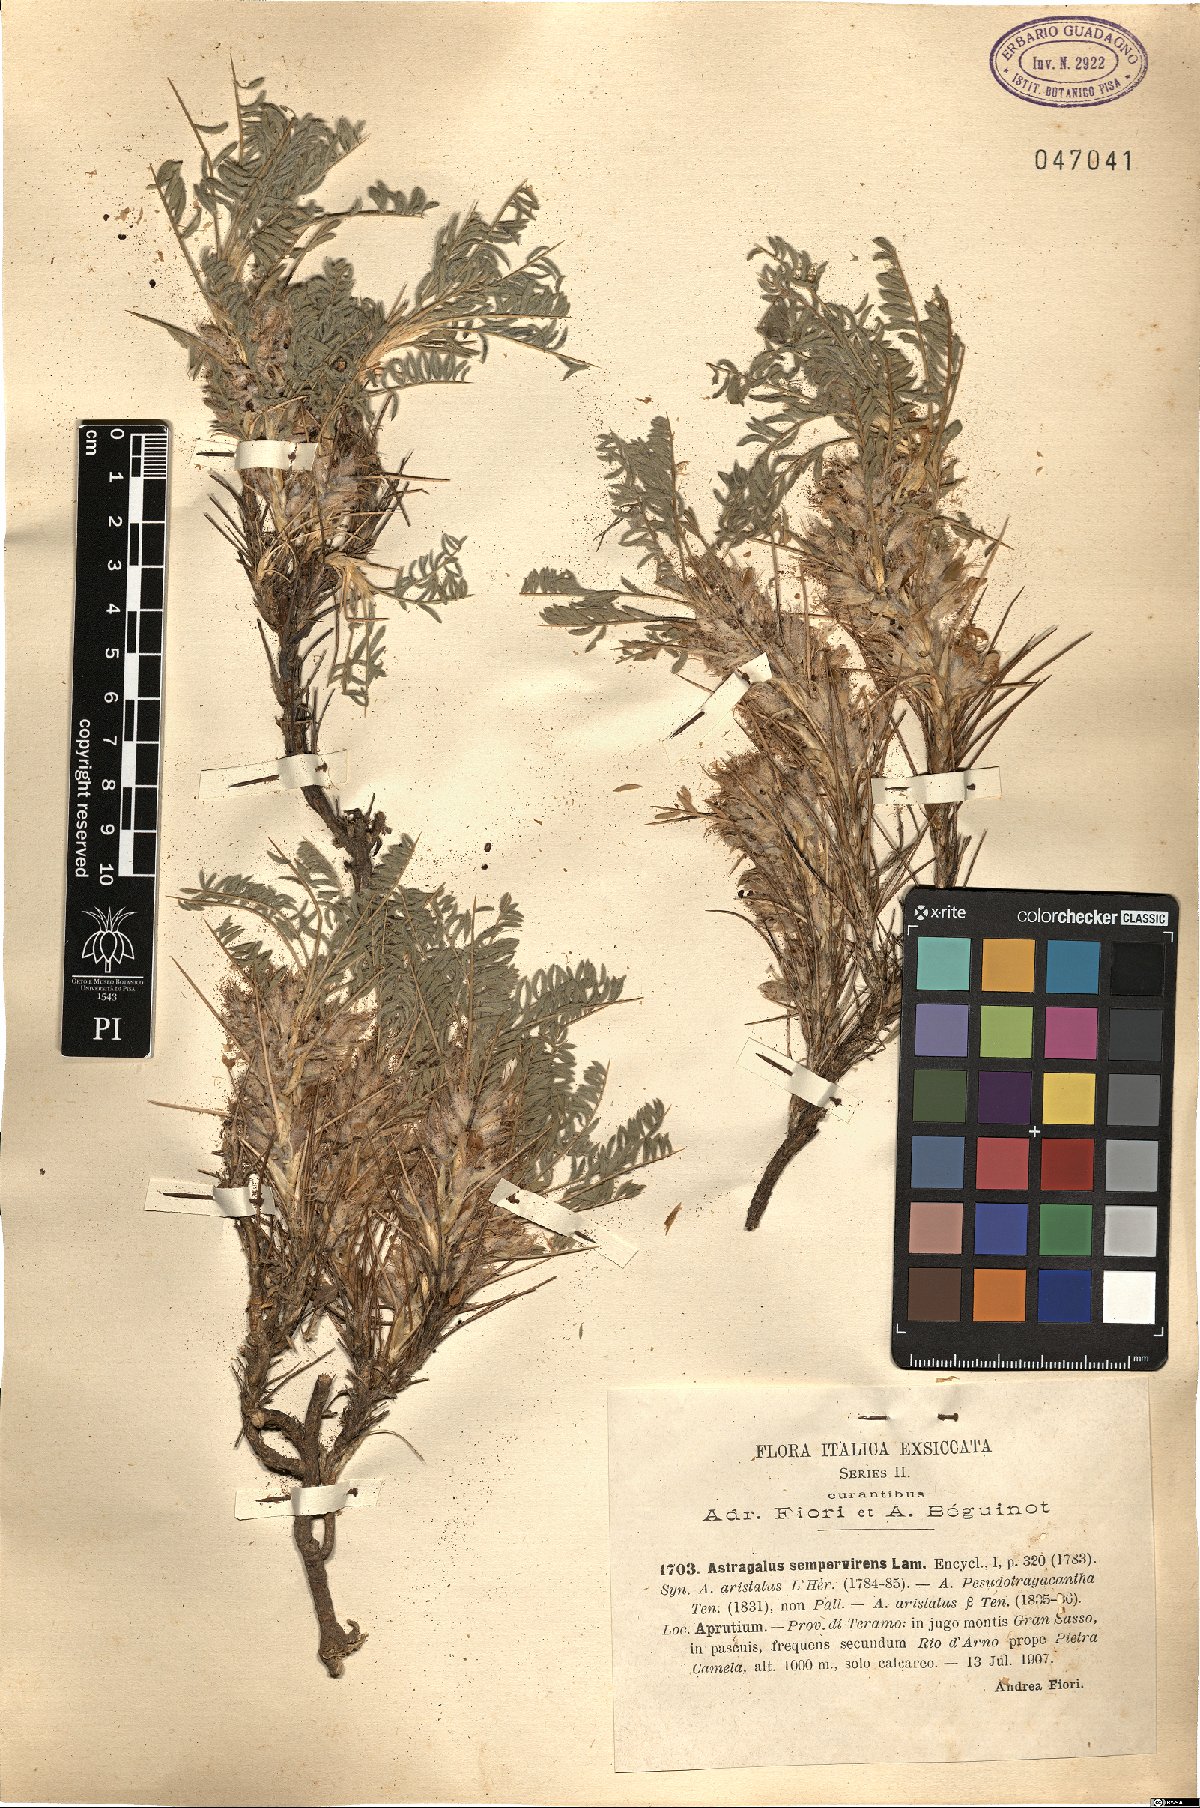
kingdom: Plantae
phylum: Tracheophyta
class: Magnoliopsida
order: Fabales
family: Fabaceae
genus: Astragalus
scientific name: Astragalus sempervirens
